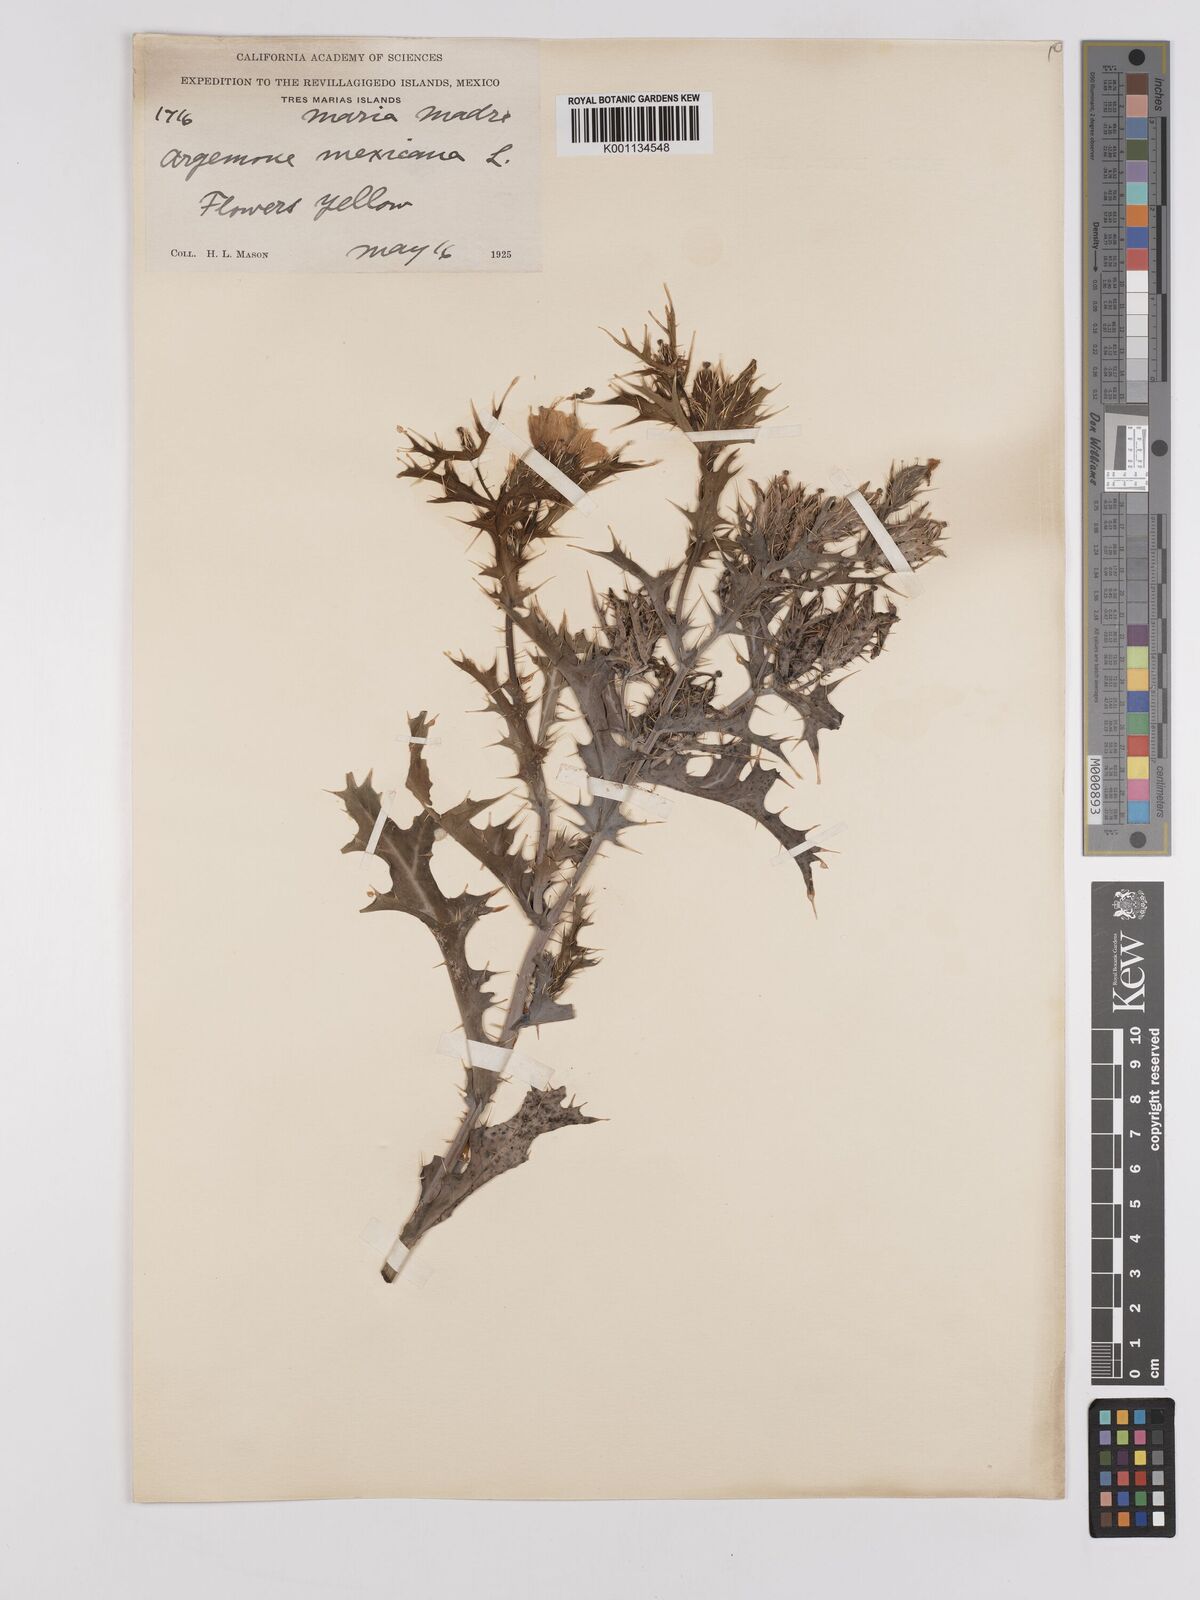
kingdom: Plantae
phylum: Tracheophyta
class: Magnoliopsida
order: Ranunculales
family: Papaveraceae
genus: Argemone
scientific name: Argemone mexicana
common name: Mexican poppy
